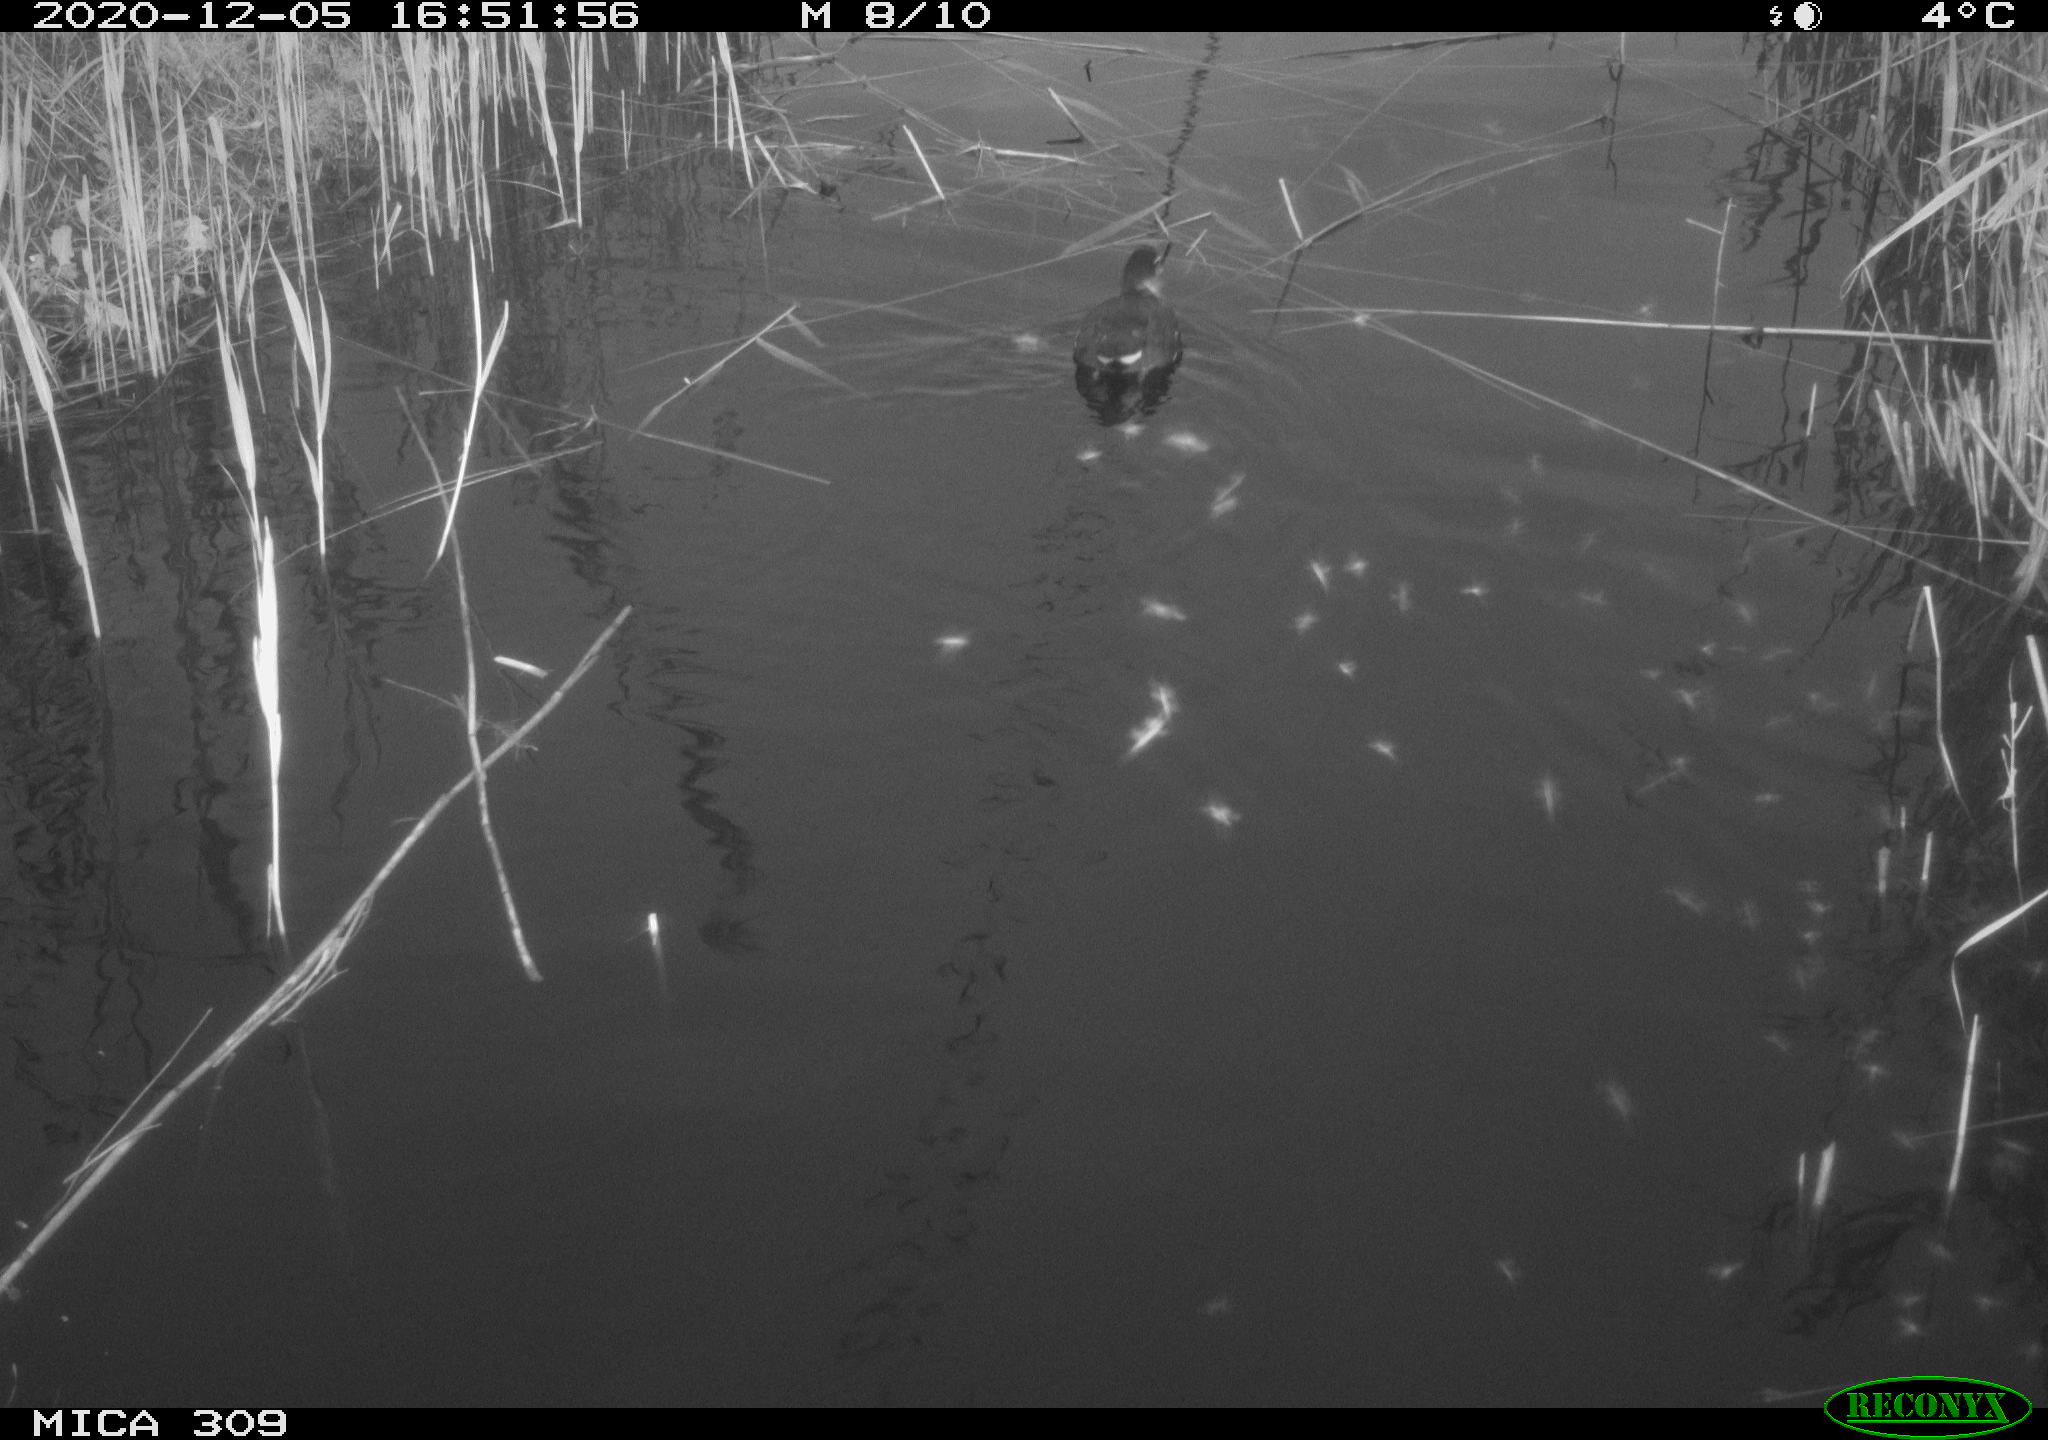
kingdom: Animalia
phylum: Chordata
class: Aves
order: Gruiformes
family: Rallidae
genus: Gallinula
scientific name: Gallinula chloropus
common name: Common moorhen
